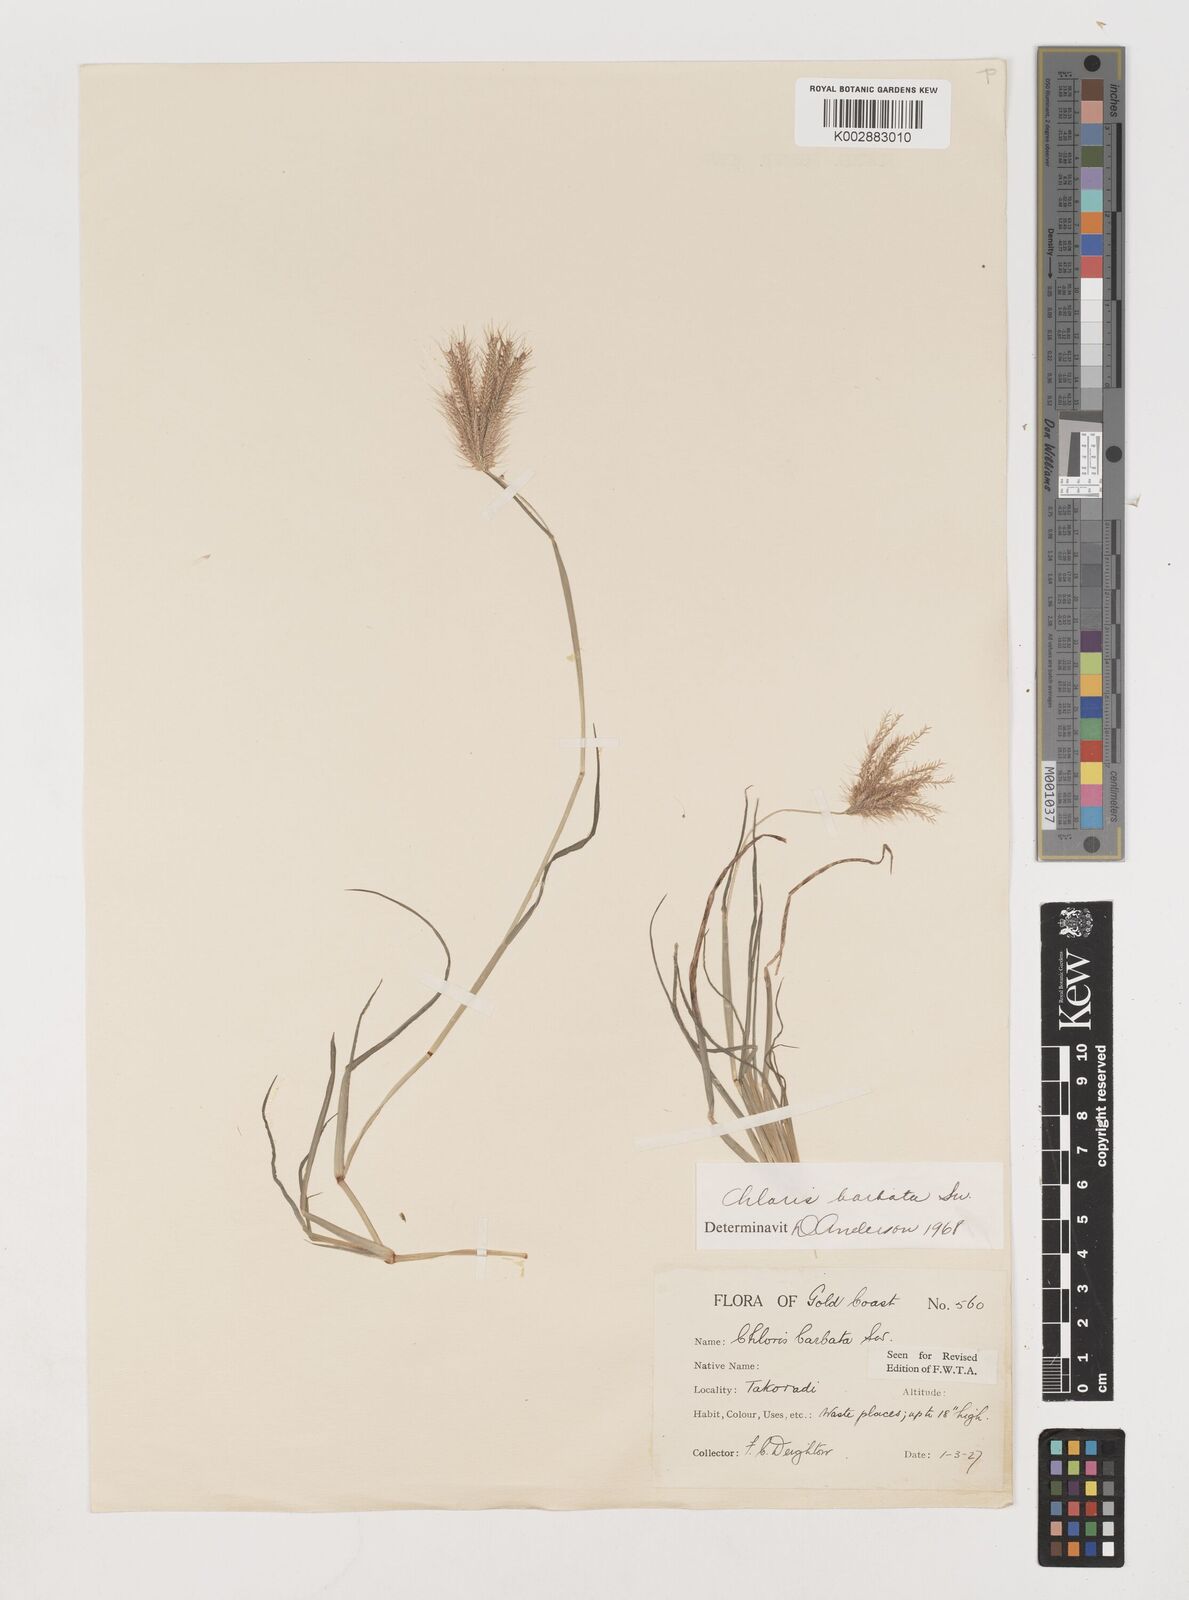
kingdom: Plantae
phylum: Tracheophyta
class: Liliopsida
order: Poales
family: Poaceae
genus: Chloris
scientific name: Chloris barbata
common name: Swollen fingergrass
